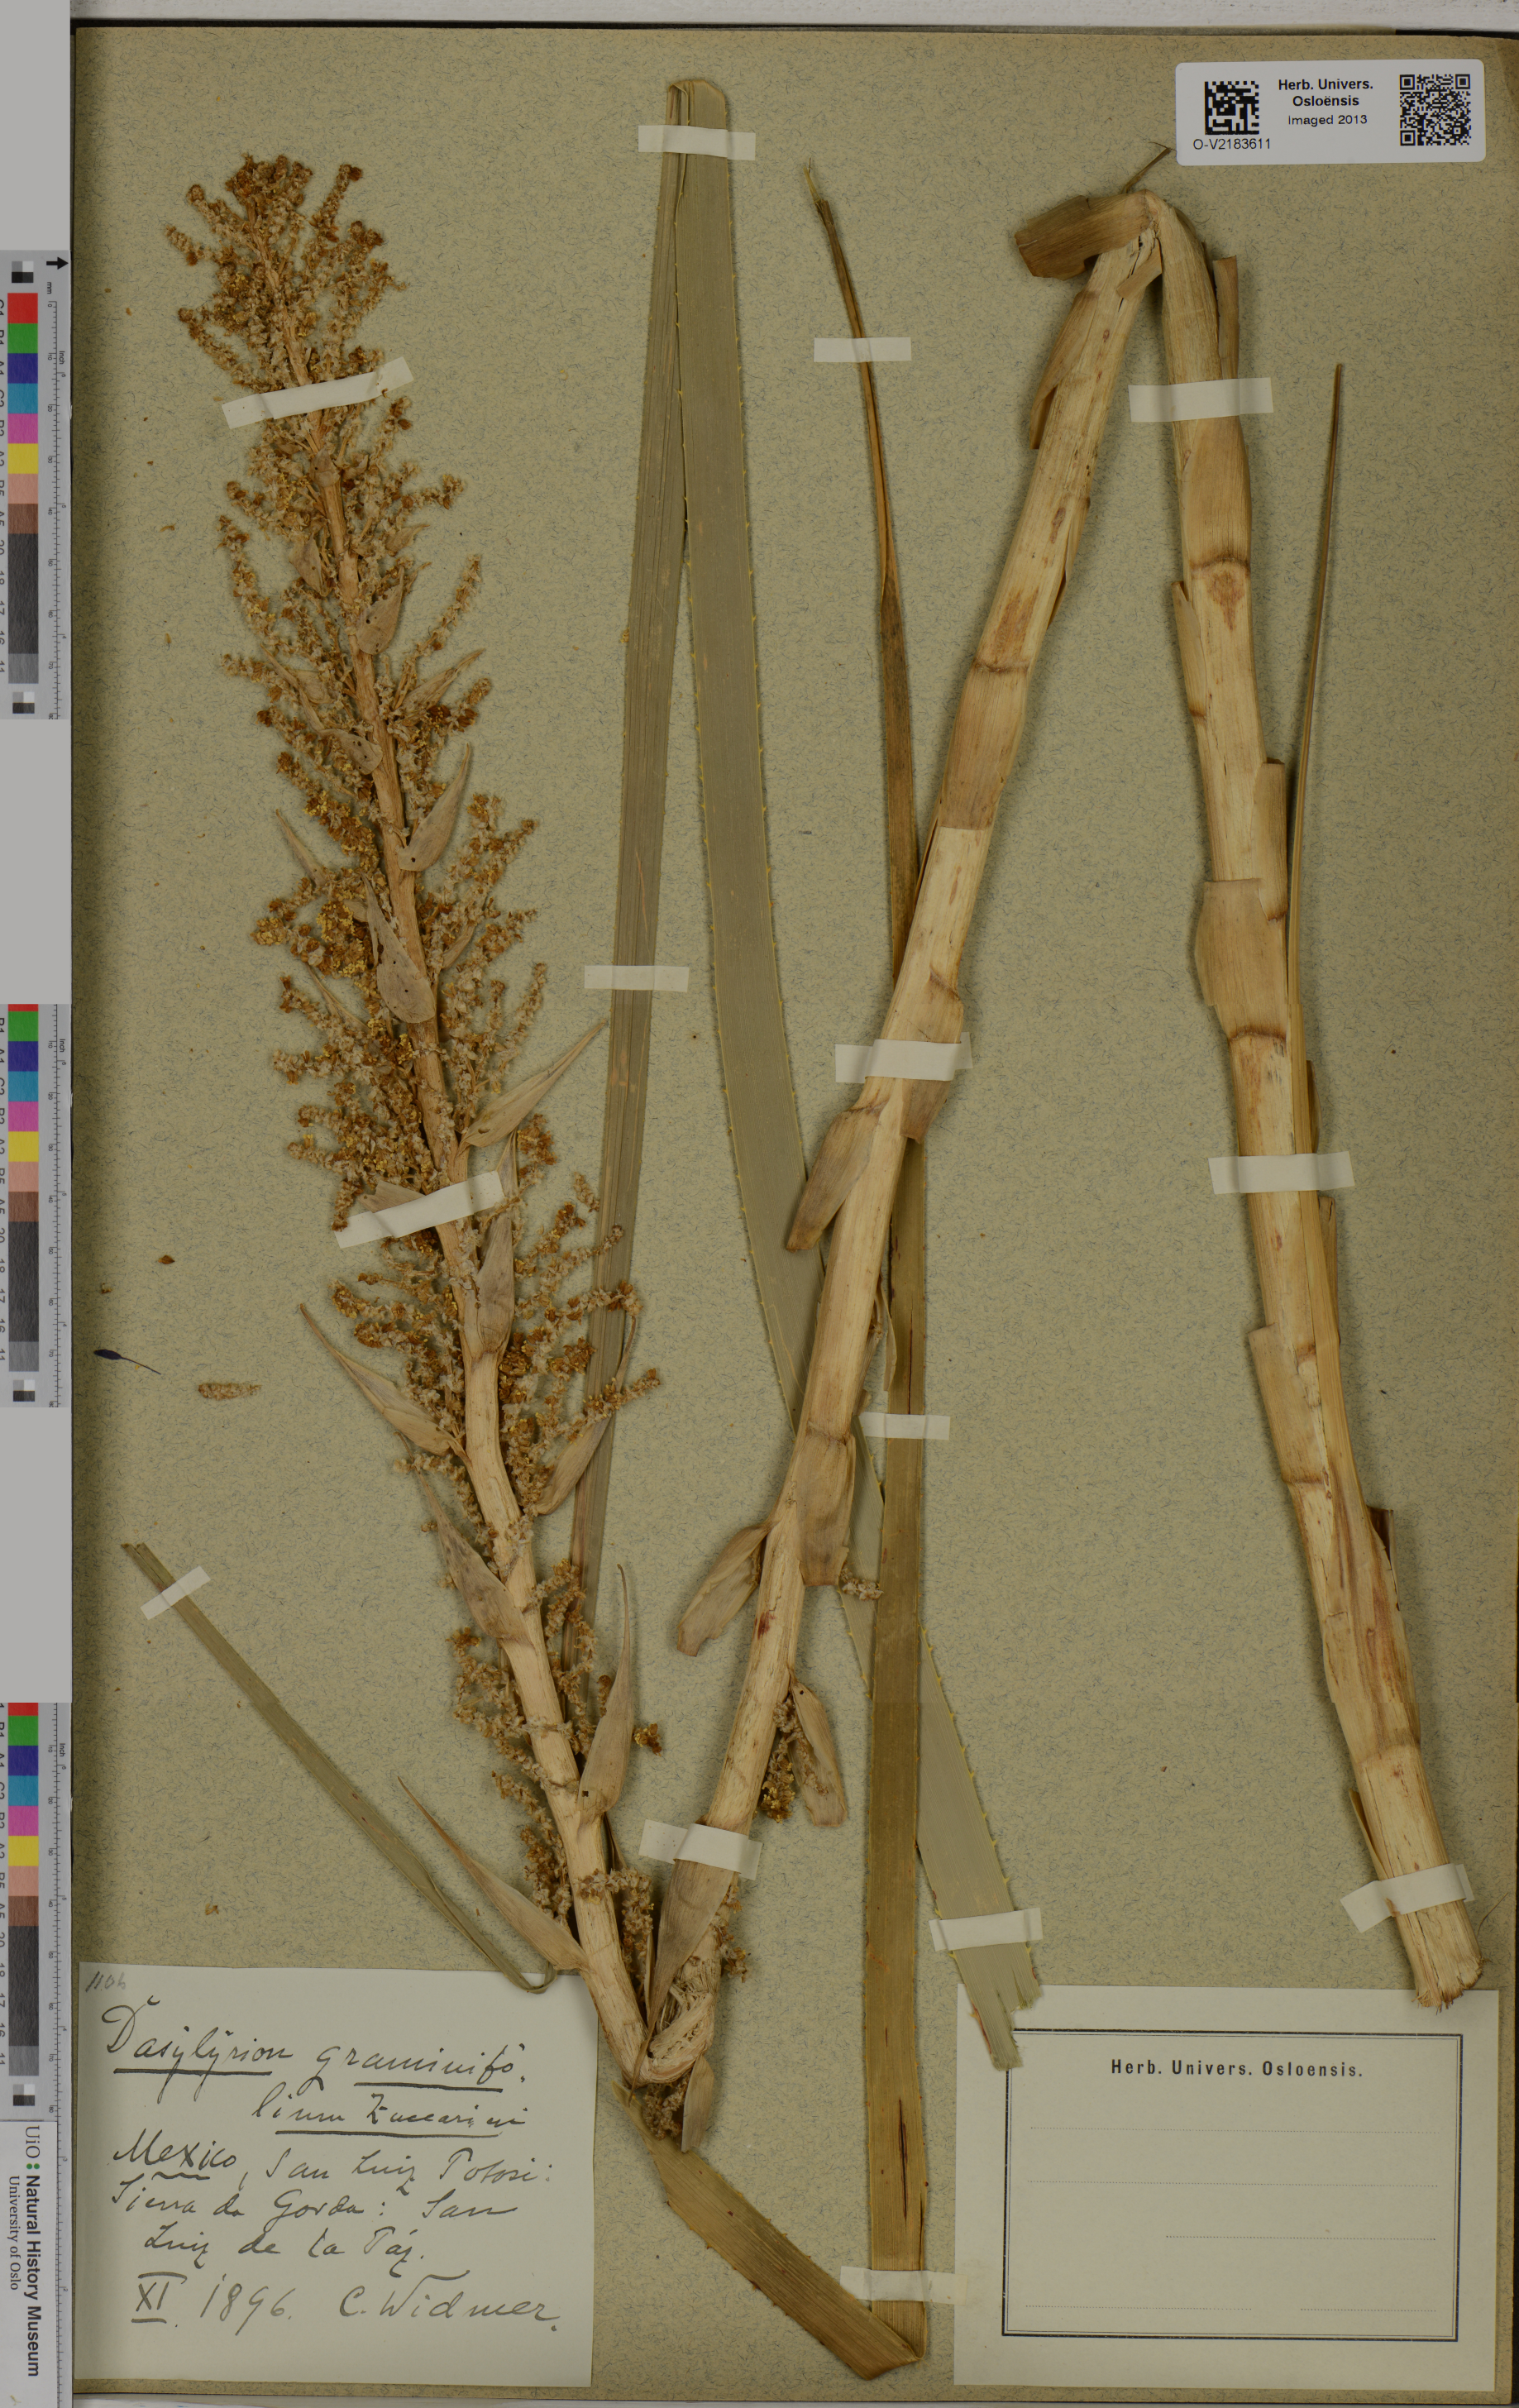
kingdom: Plantae
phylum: Tracheophyta
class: Liliopsida
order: Asparagales
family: Asparagaceae
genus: Dasylirion
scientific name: Dasylirion graminifolium
